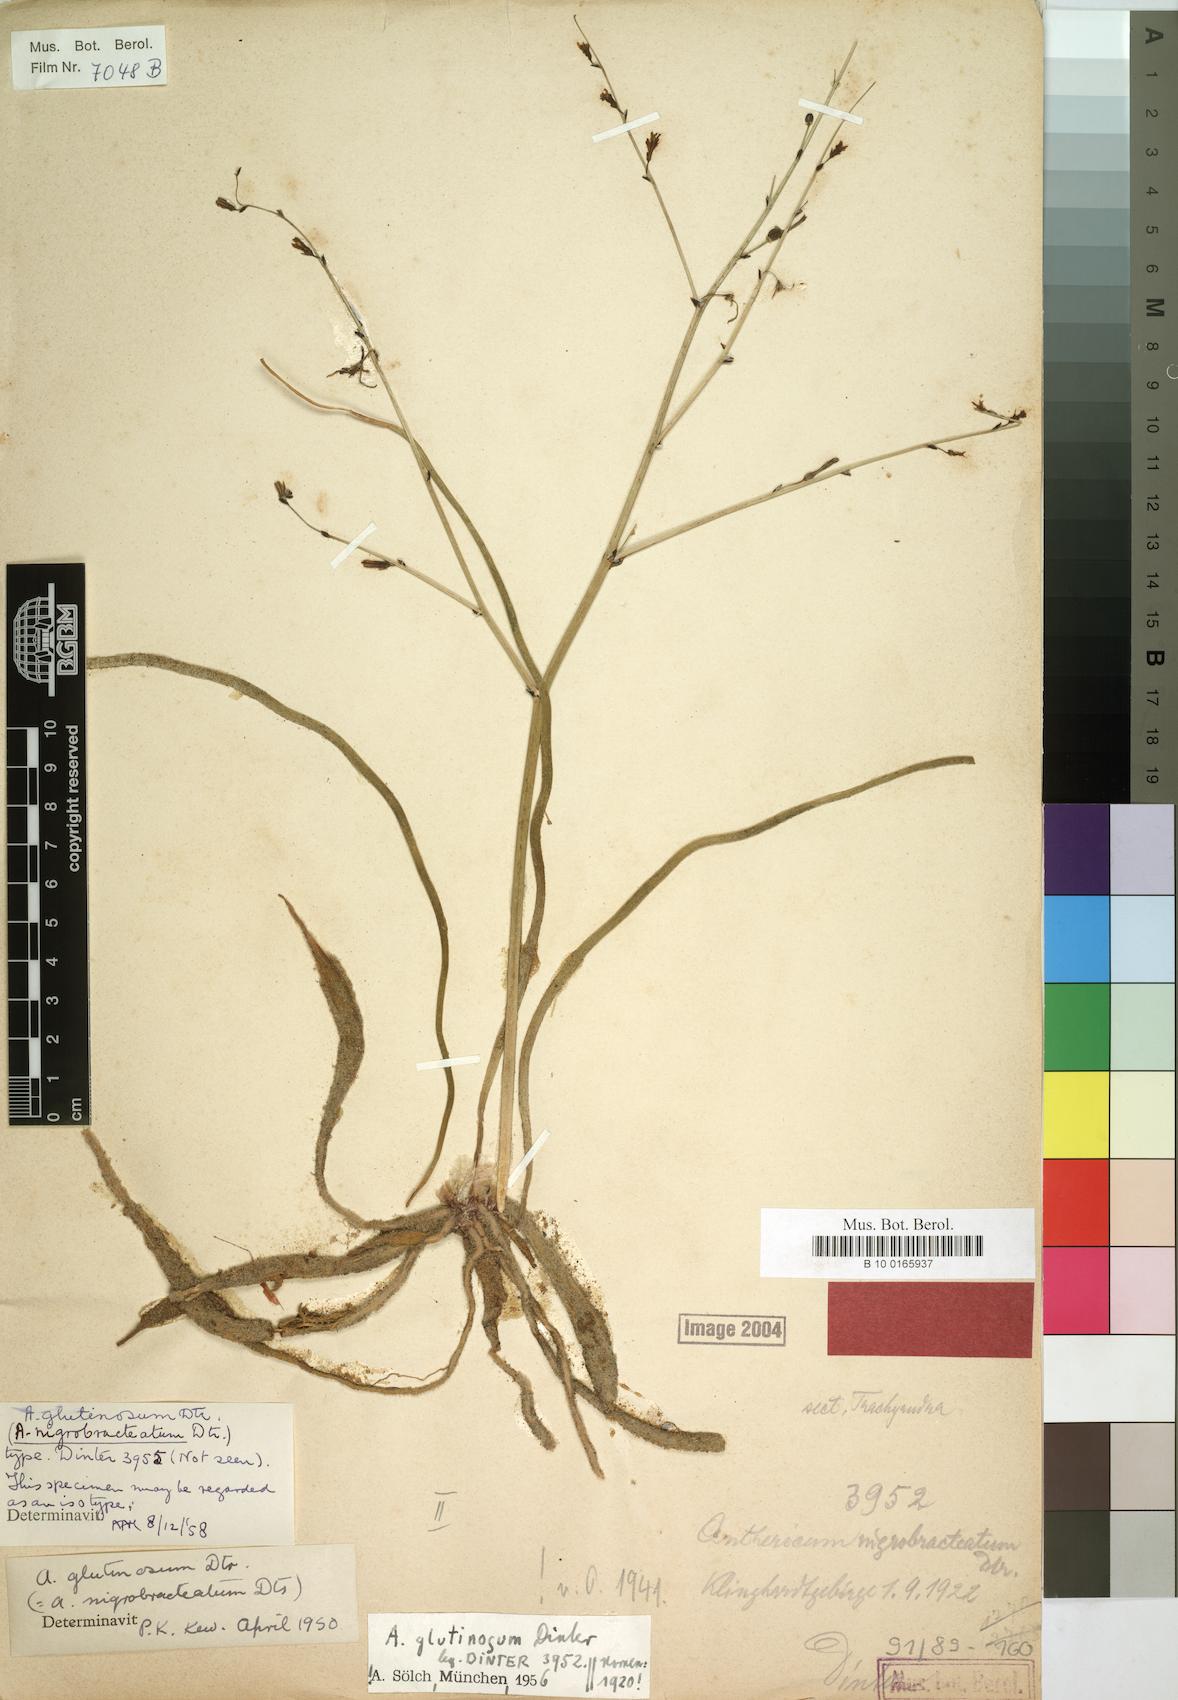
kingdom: Plantae
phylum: Tracheophyta
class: Liliopsida
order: Asparagales
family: Asphodelaceae
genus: Trachyandra
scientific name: Trachyandra laxa
